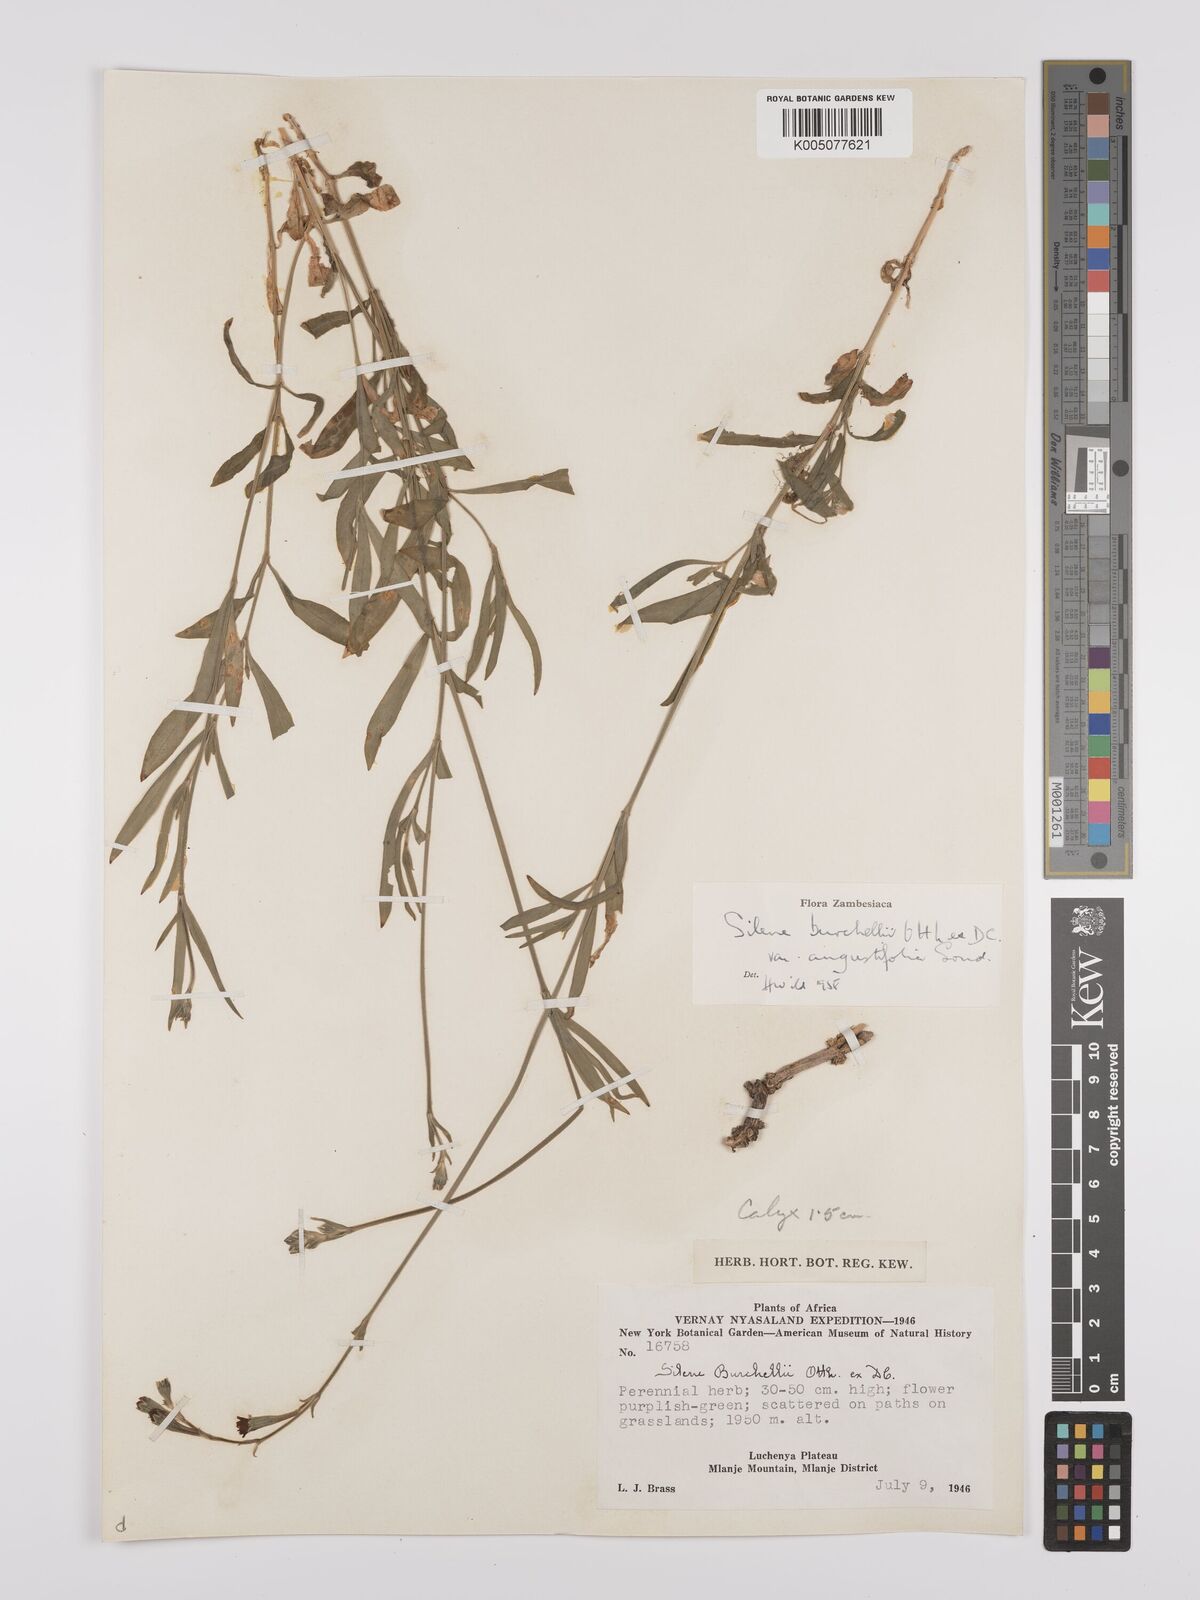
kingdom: Plantae
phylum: Tracheophyta
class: Magnoliopsida
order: Caryophyllales
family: Caryophyllaceae
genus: Silene
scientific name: Silene burchellii
